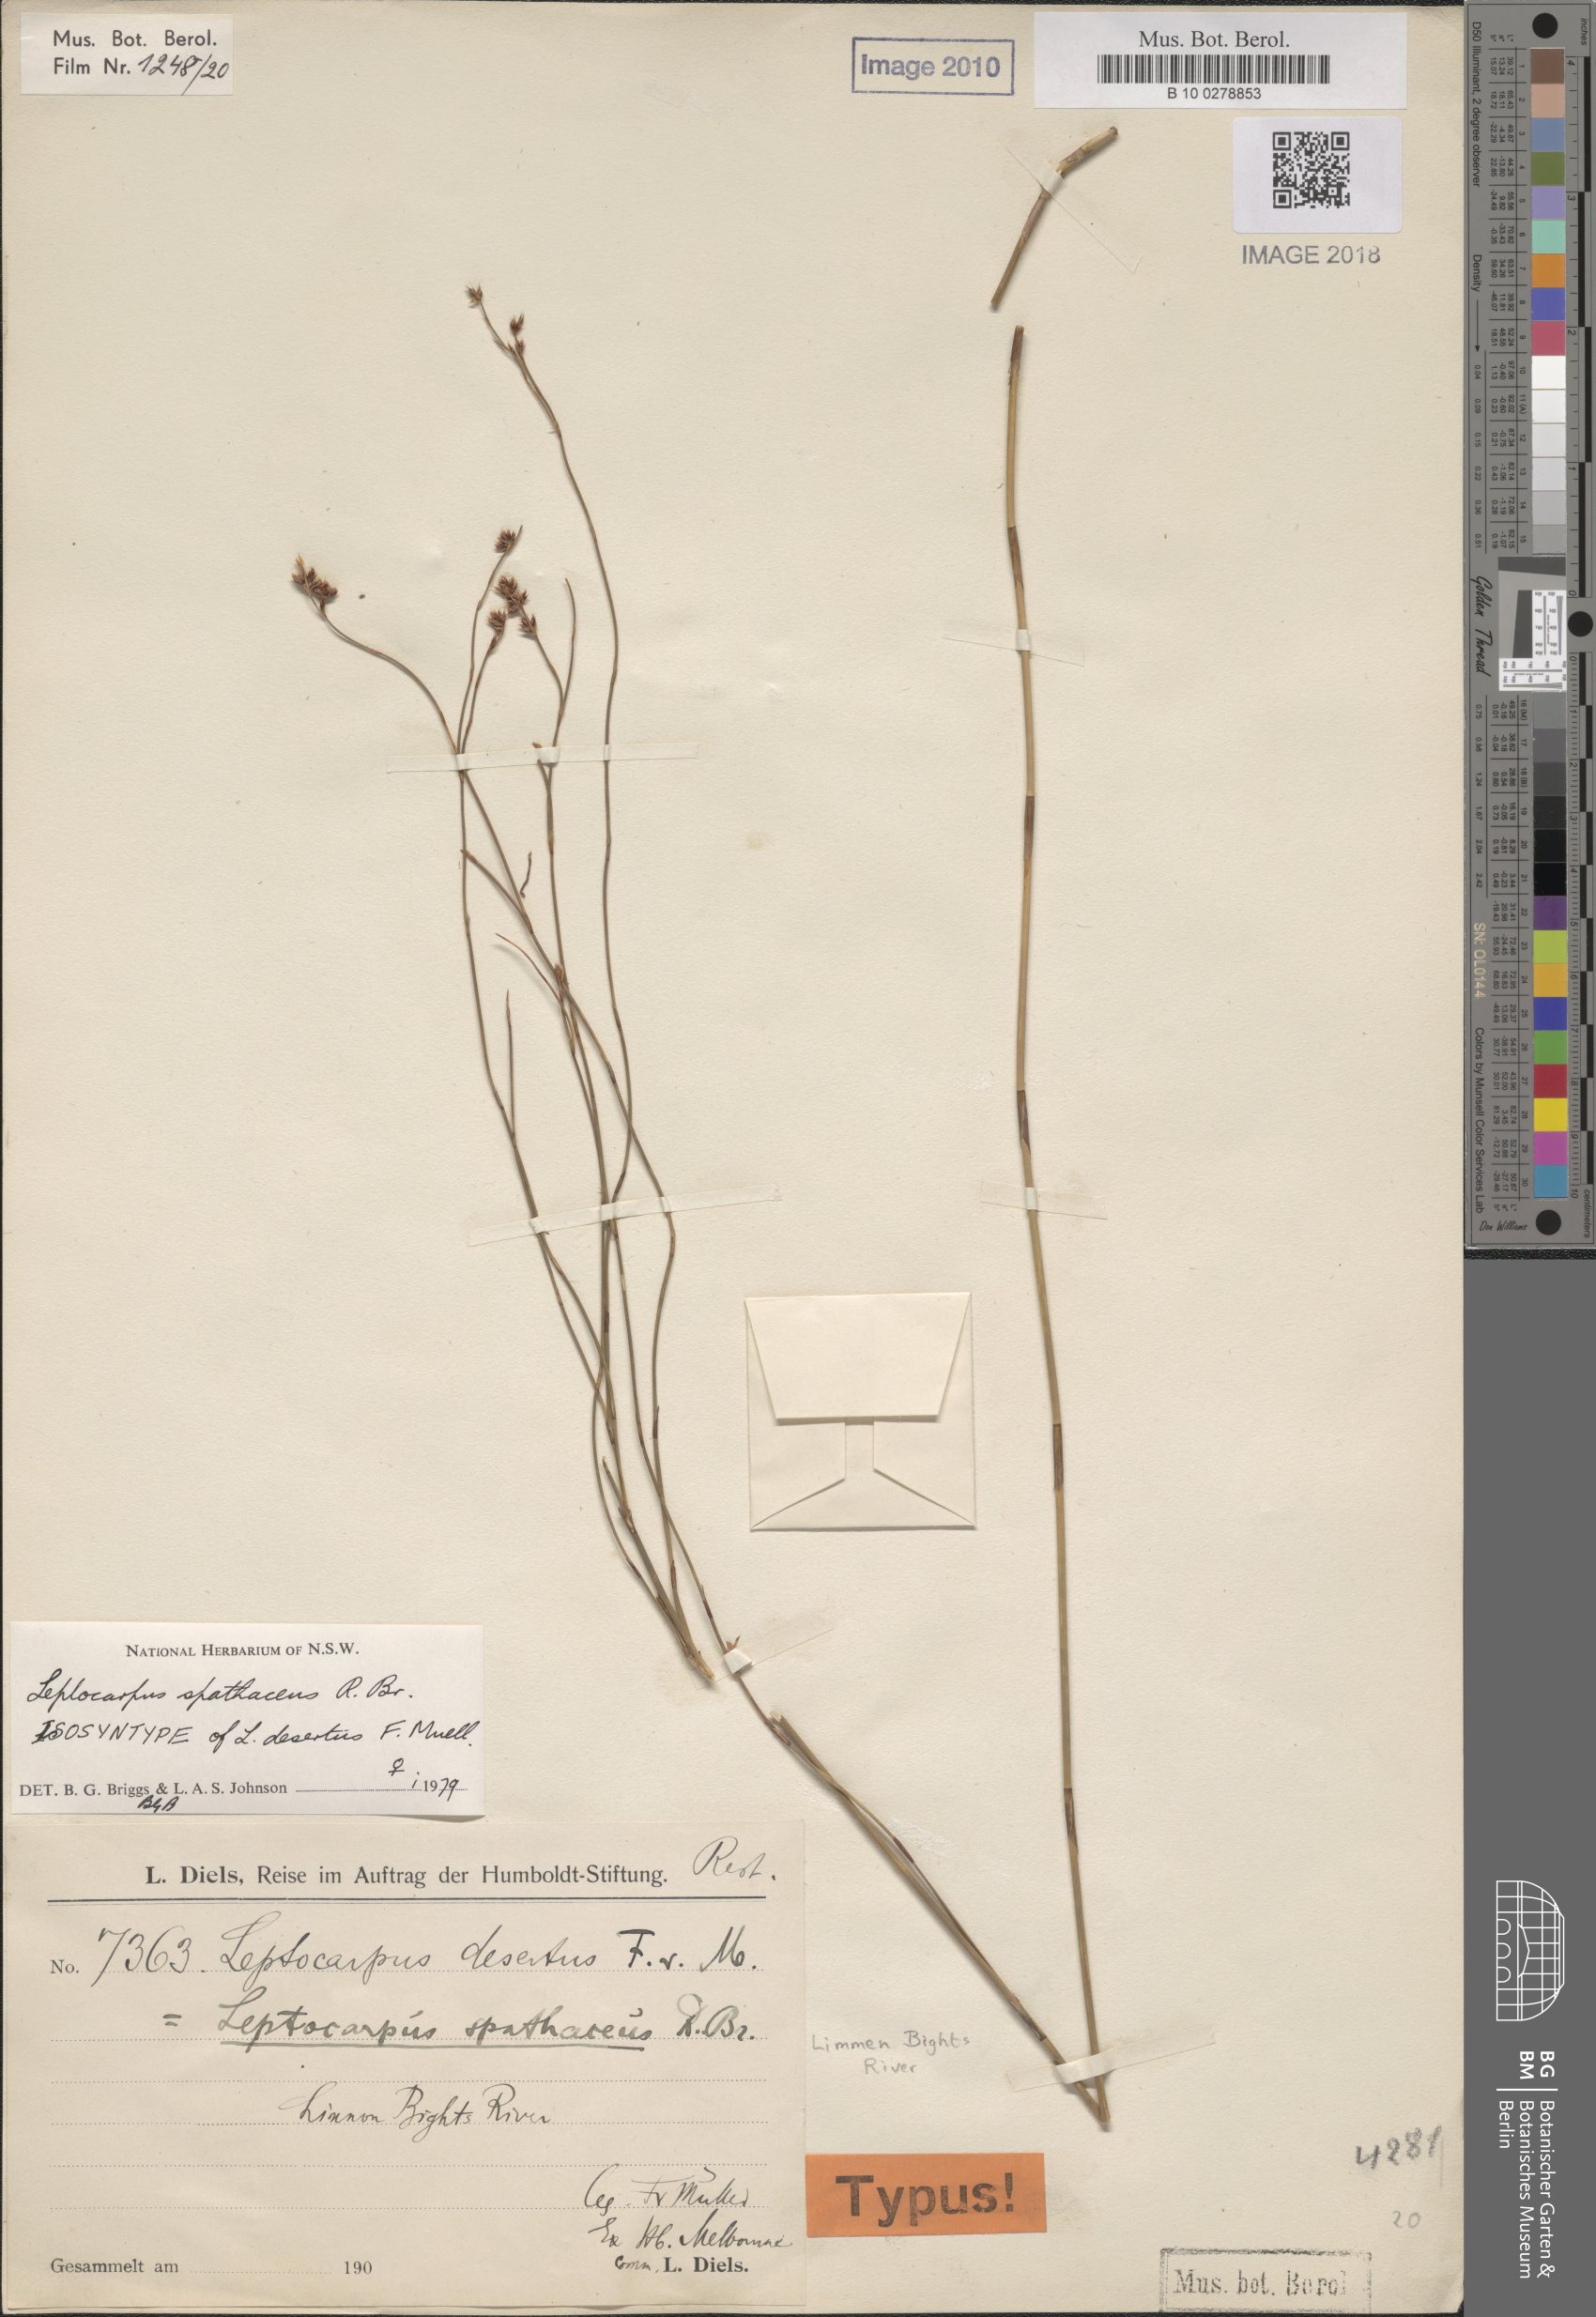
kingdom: Plantae
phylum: Tracheophyta
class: Liliopsida
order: Poales
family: Restionaceae
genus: Dapsilanthus
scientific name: Dapsilanthus spathaceus
